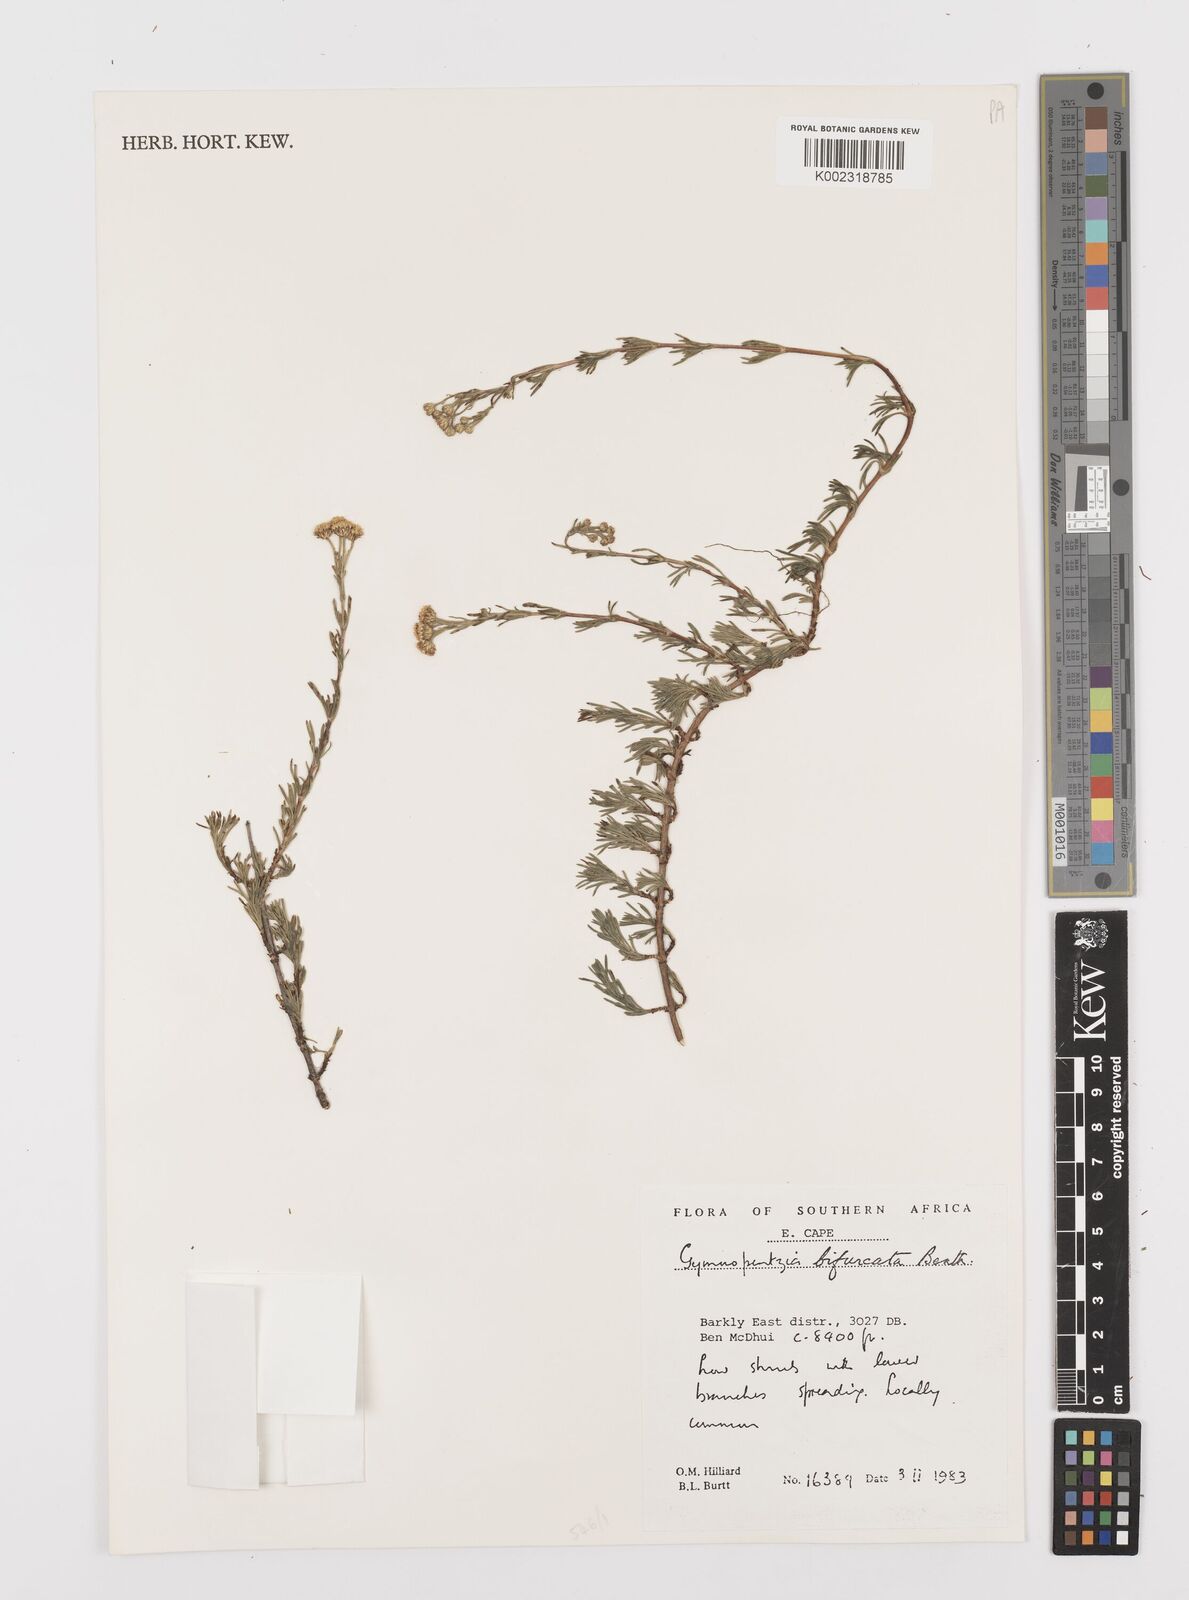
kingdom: Plantae
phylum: Tracheophyta
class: Magnoliopsida
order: Asterales
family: Asteraceae
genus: Gymnopentzia
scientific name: Gymnopentzia bifurcata
